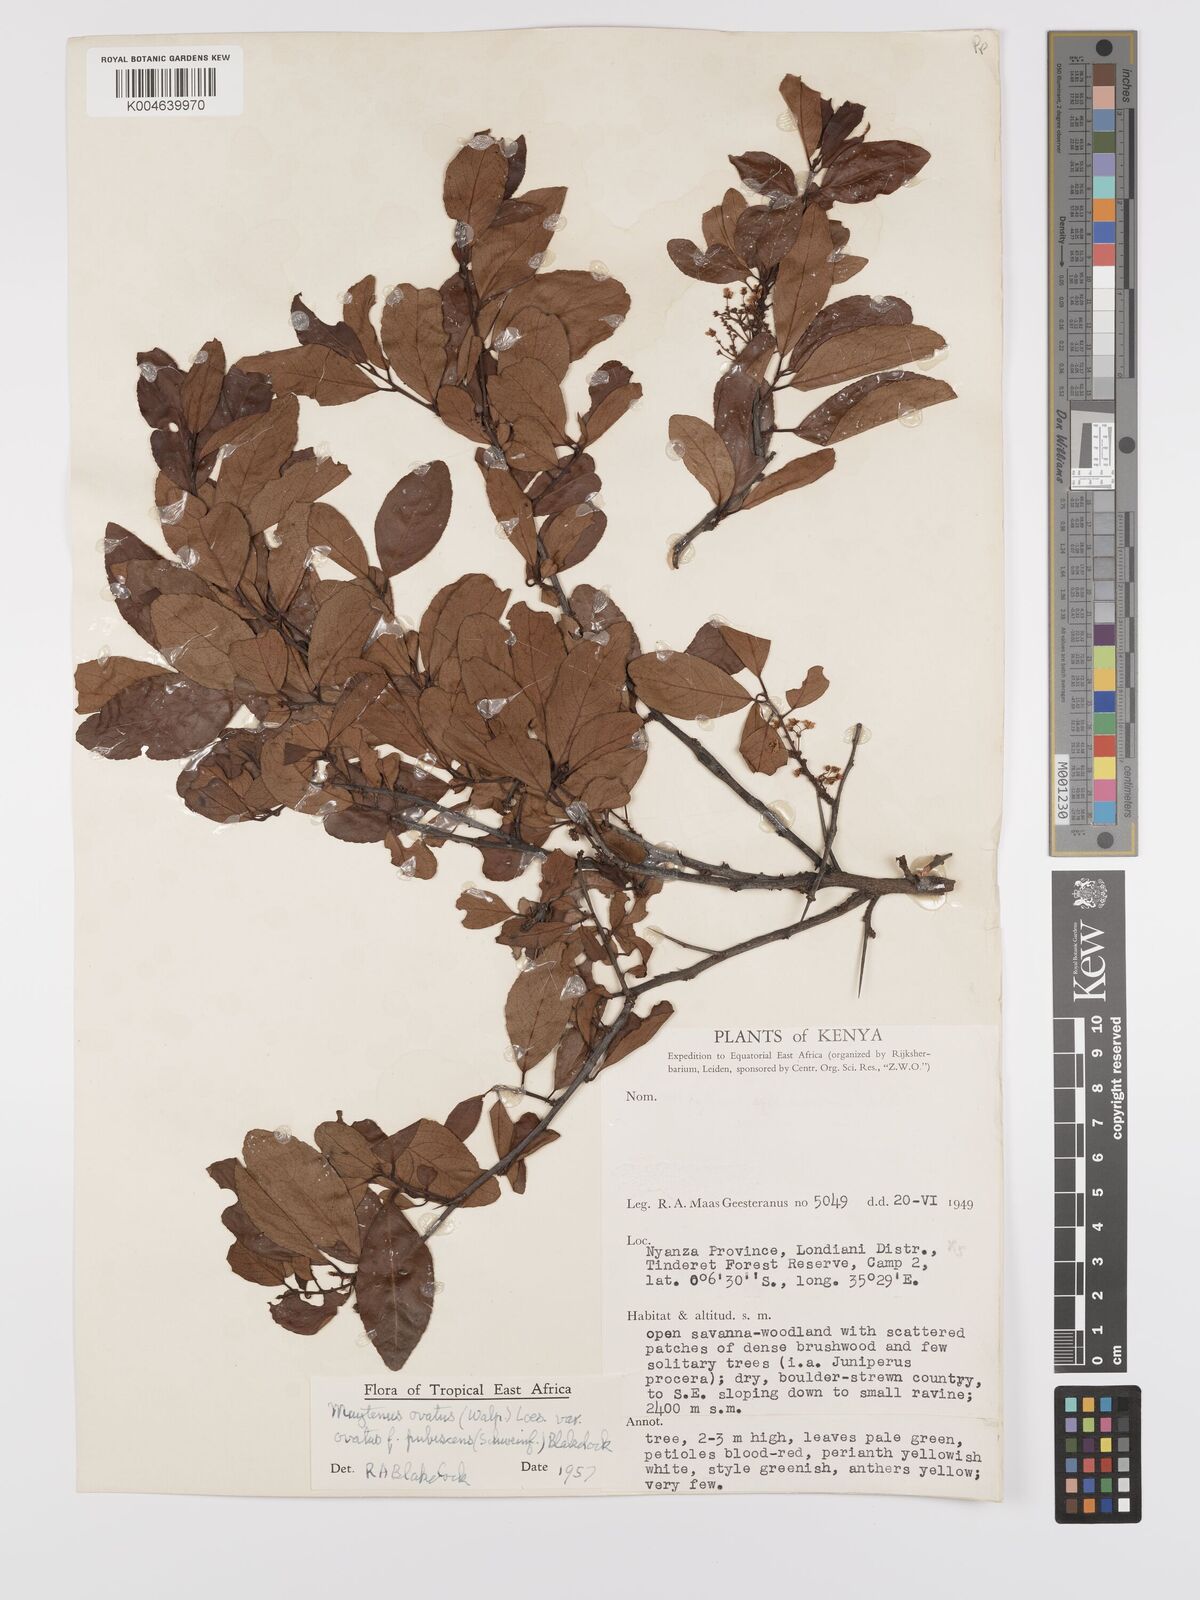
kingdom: Plantae
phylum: Tracheophyta
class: Magnoliopsida
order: Celastrales
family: Celastraceae
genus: Gymnosporia
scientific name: Gymnosporia arbutifolia
